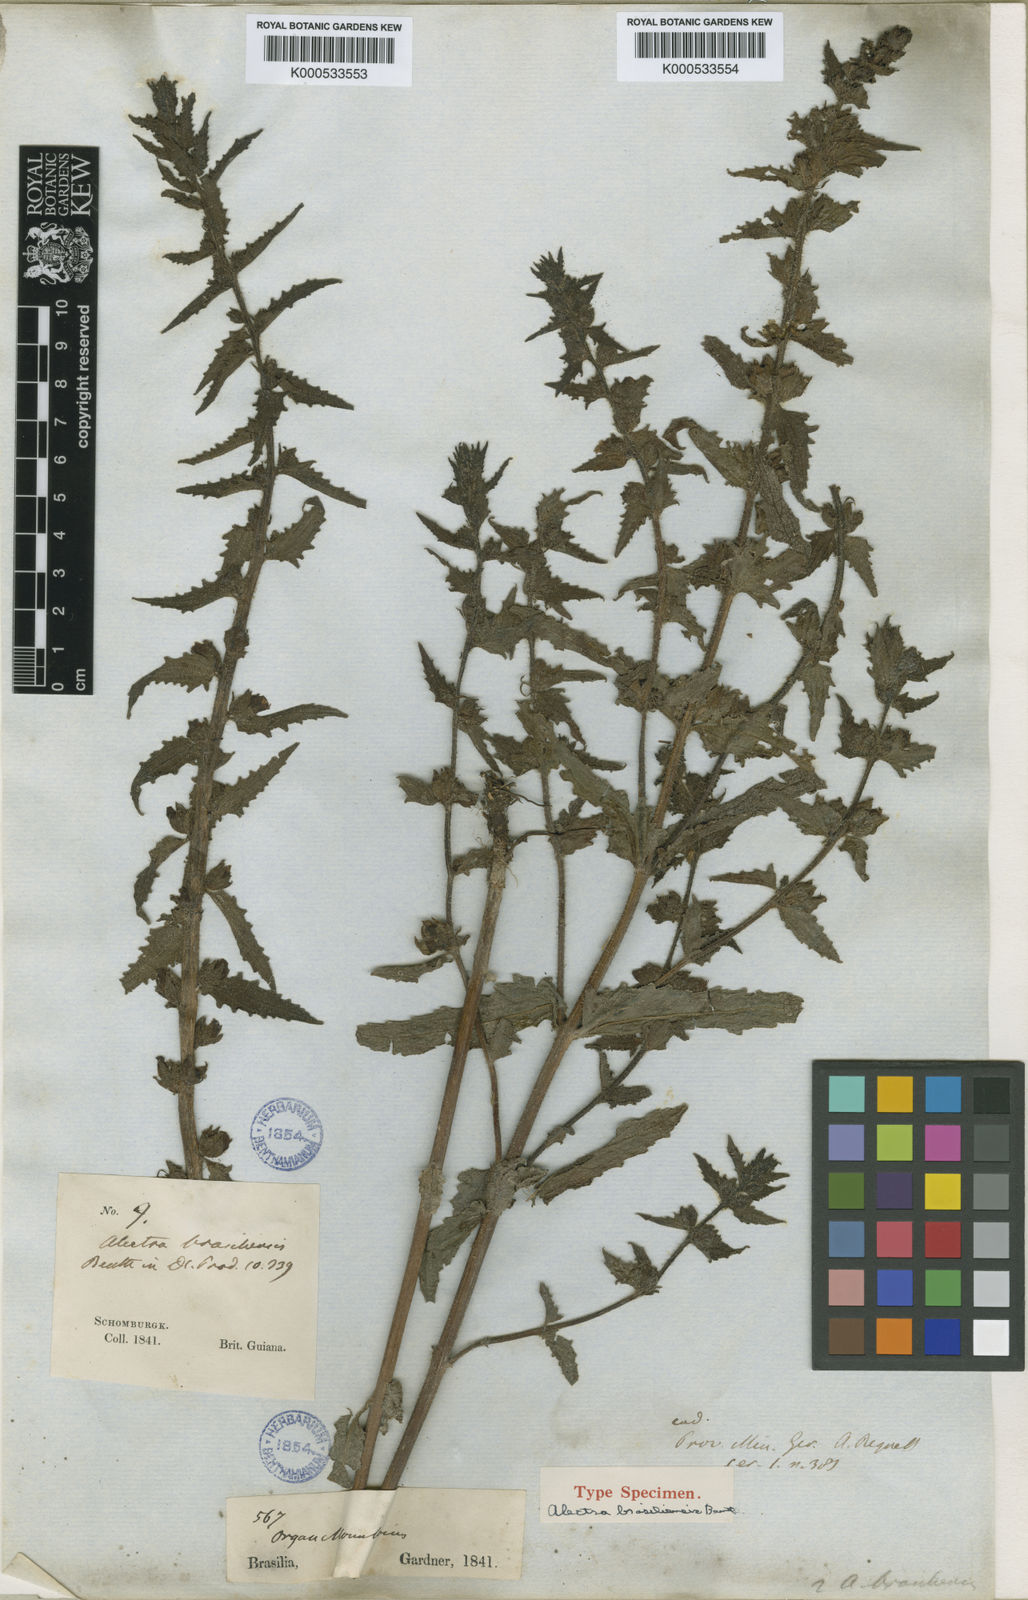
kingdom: Plantae
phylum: Tracheophyta
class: Magnoliopsida
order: Lamiales
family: Orobanchaceae
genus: Alectra
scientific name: Alectra sessiliflora
